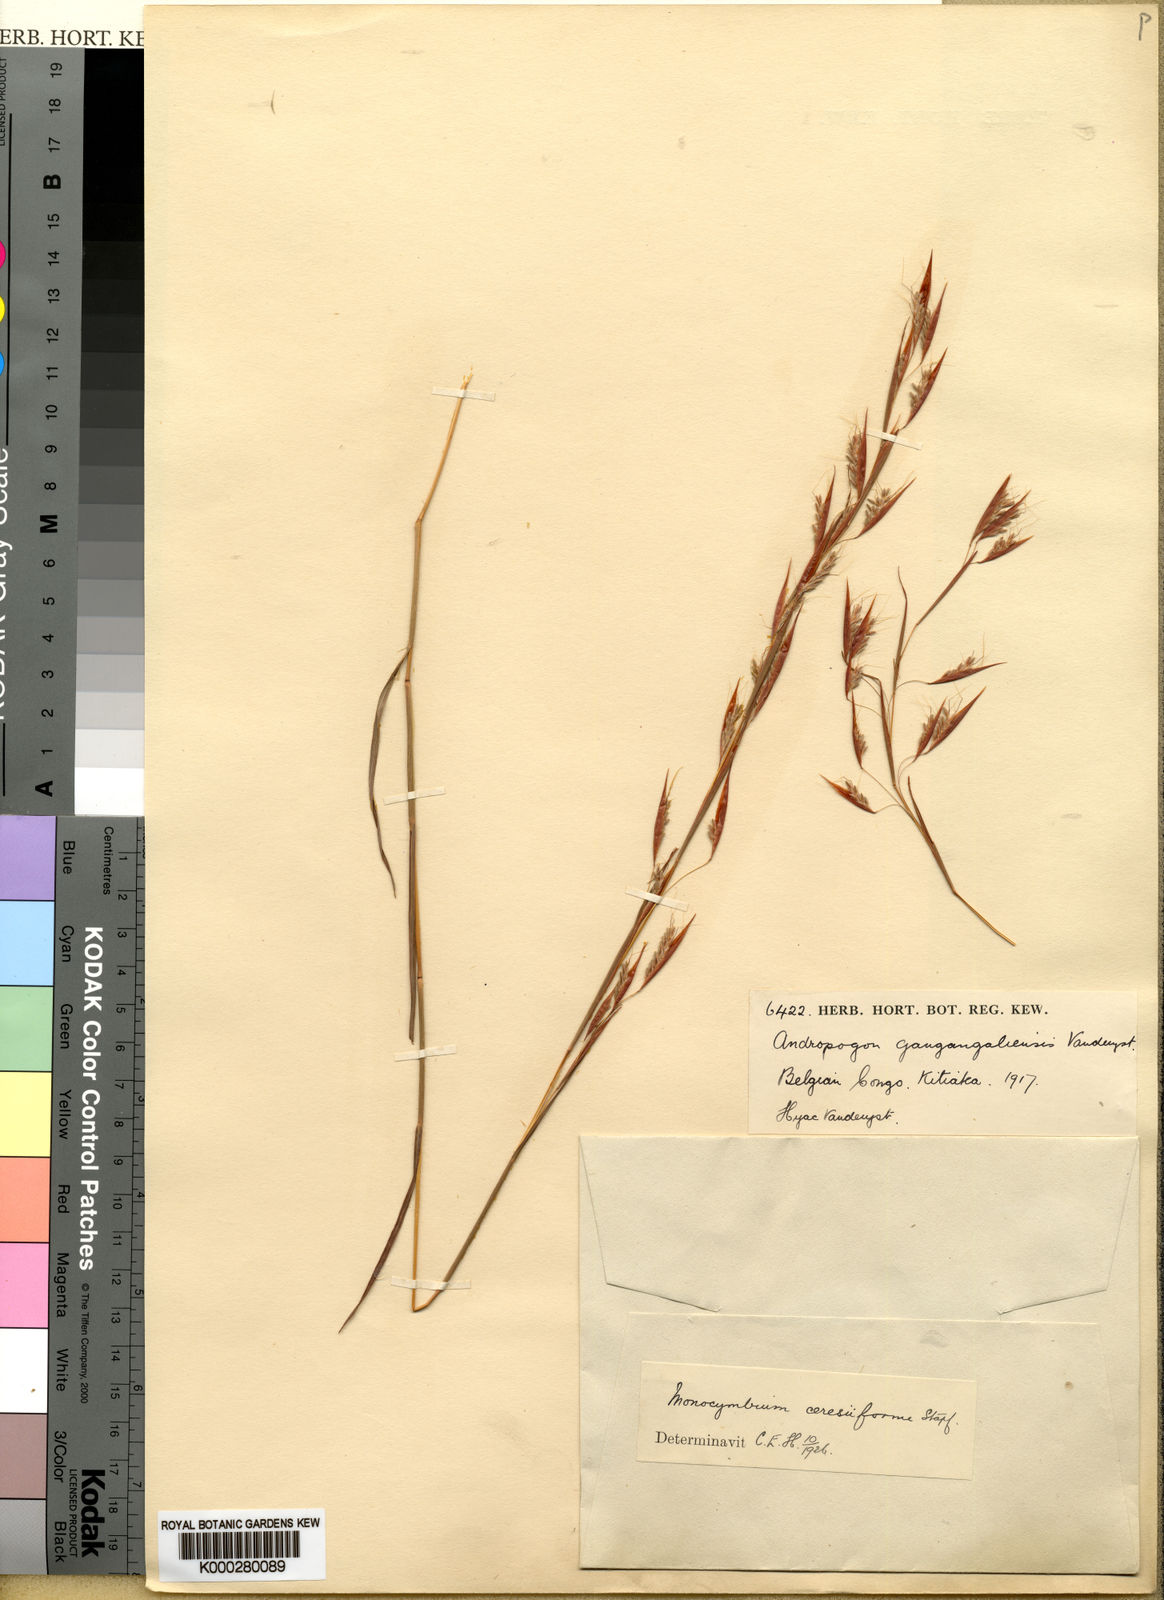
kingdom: Plantae
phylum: Tracheophyta
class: Liliopsida
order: Poales
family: Poaceae
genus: Monocymbium
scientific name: Monocymbium ceresiiforme
